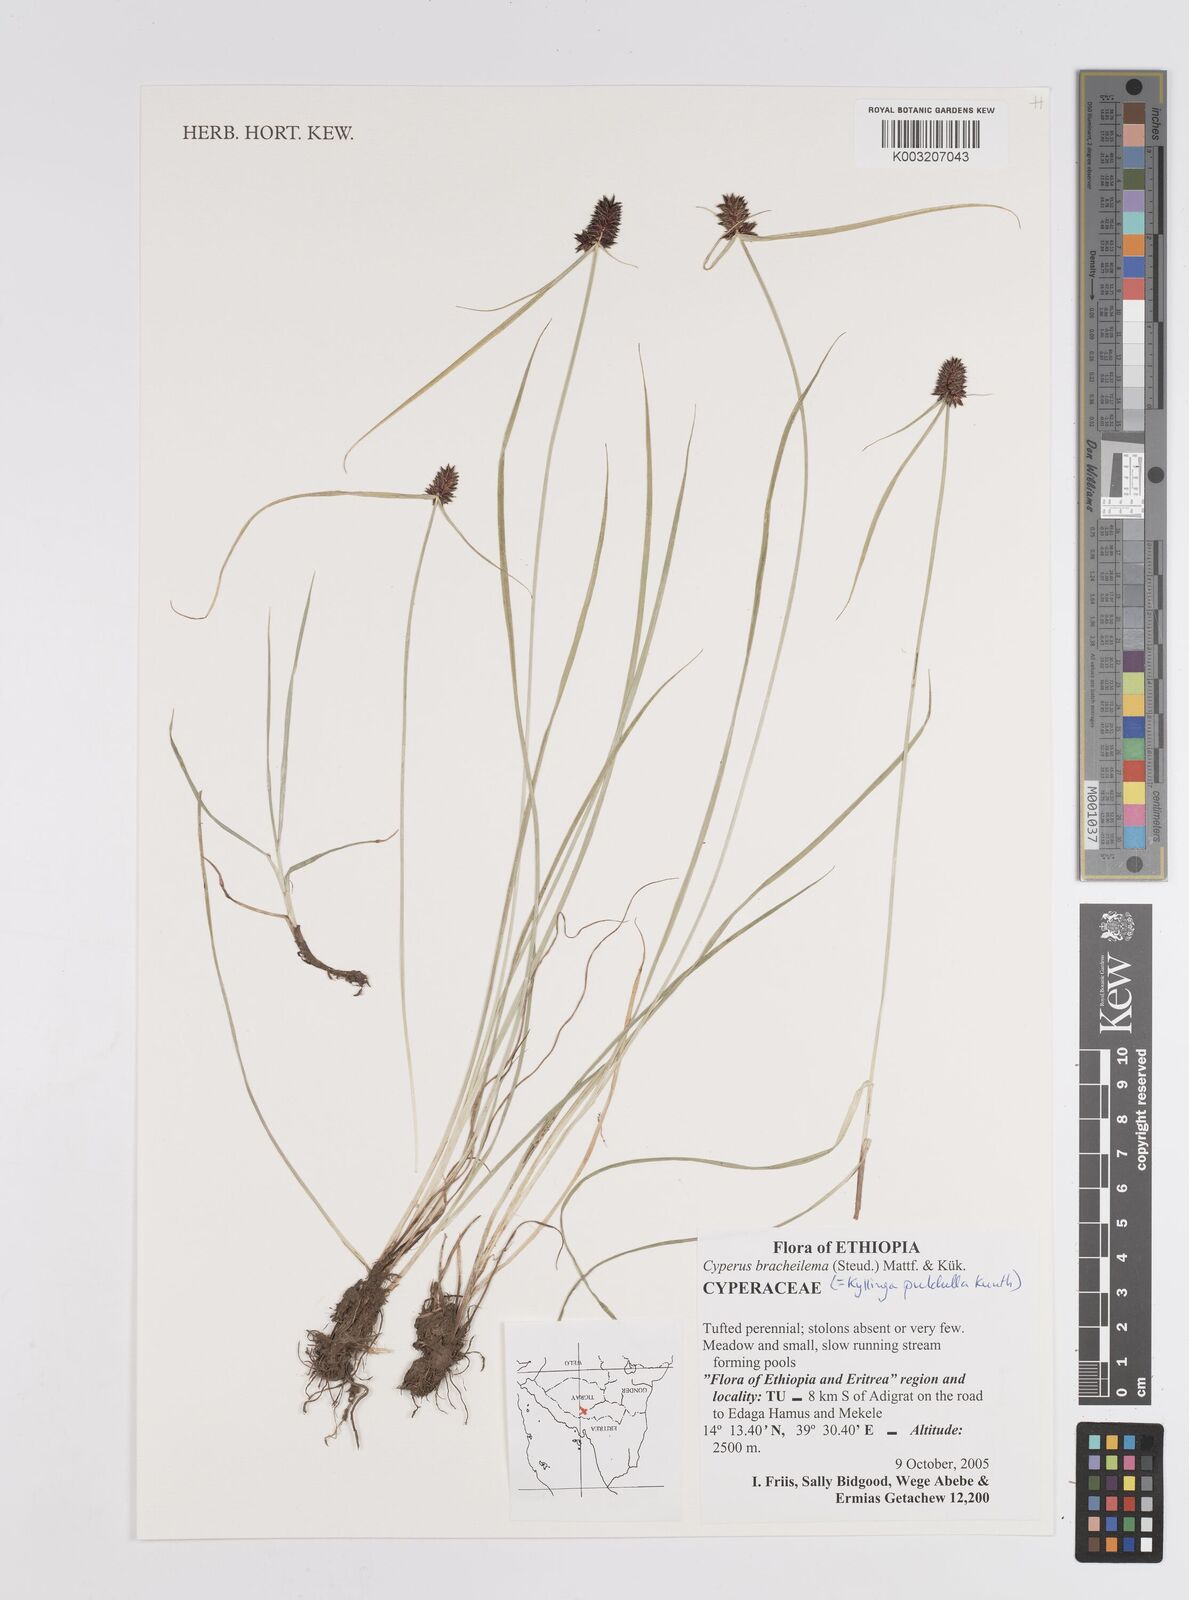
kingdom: Plantae
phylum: Tracheophyta
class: Liliopsida
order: Poales
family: Cyperaceae
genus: Cyperus
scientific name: Cyperus
